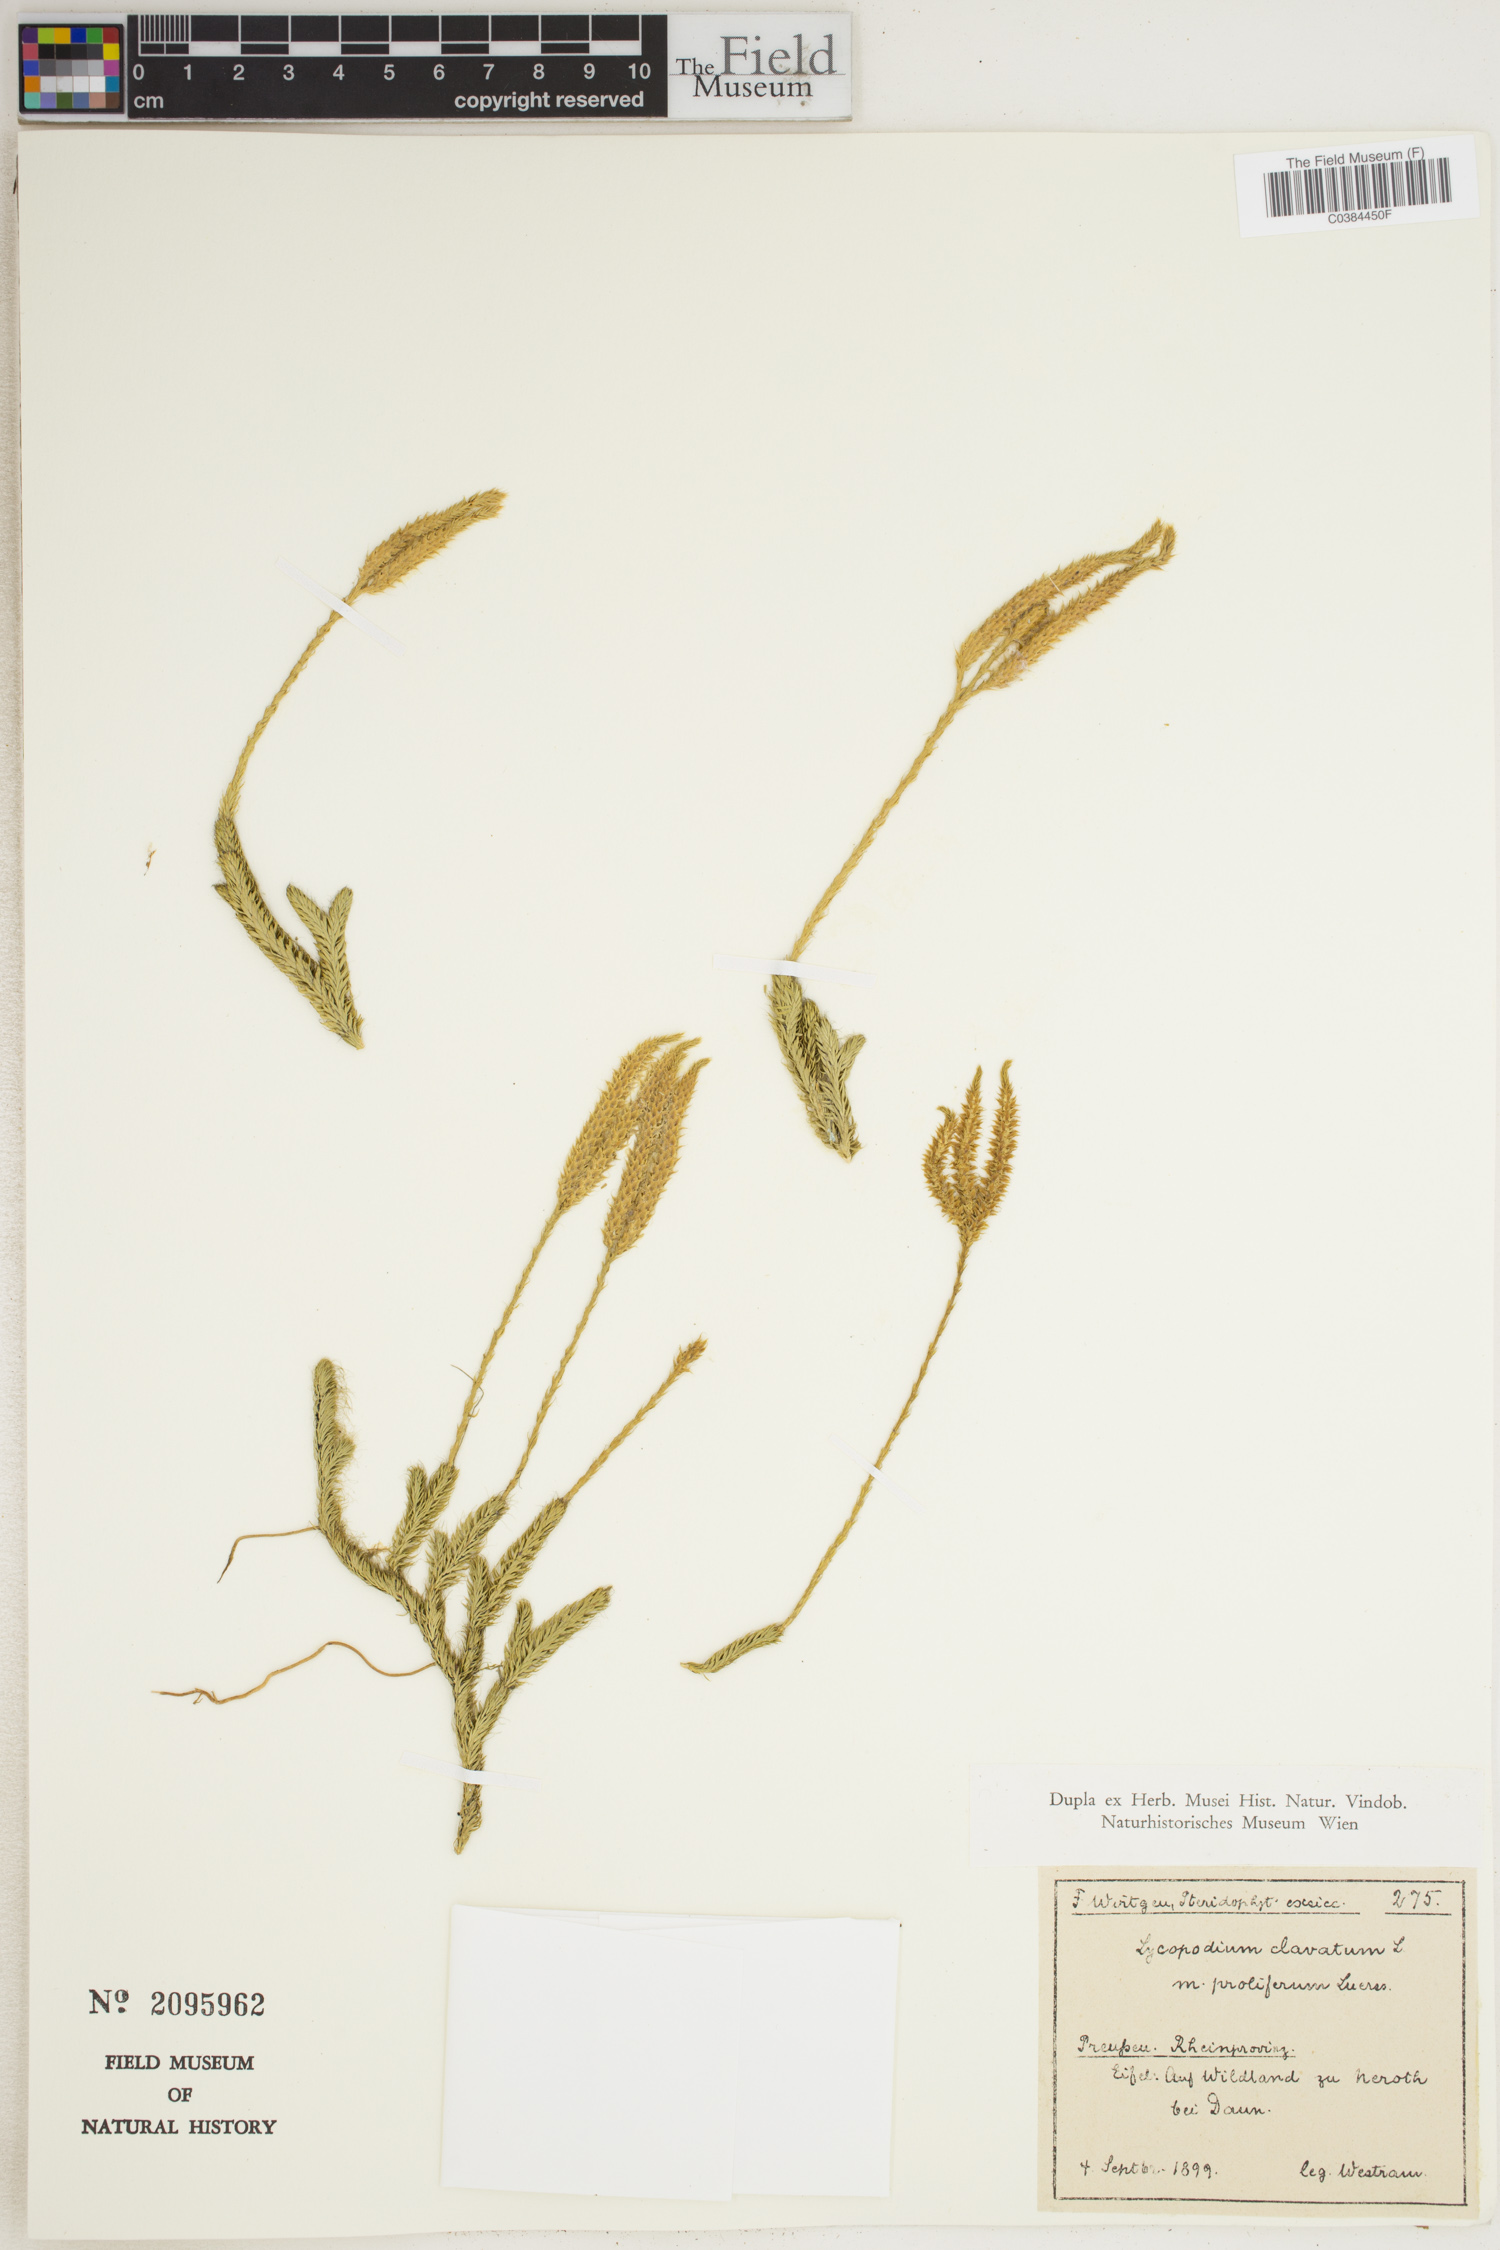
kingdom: Plantae
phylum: Tracheophyta
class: Lycopodiopsida
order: Lycopodiales
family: Lycopodiaceae
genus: Huperzia
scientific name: Huperzia selago
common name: Northern firmoss
